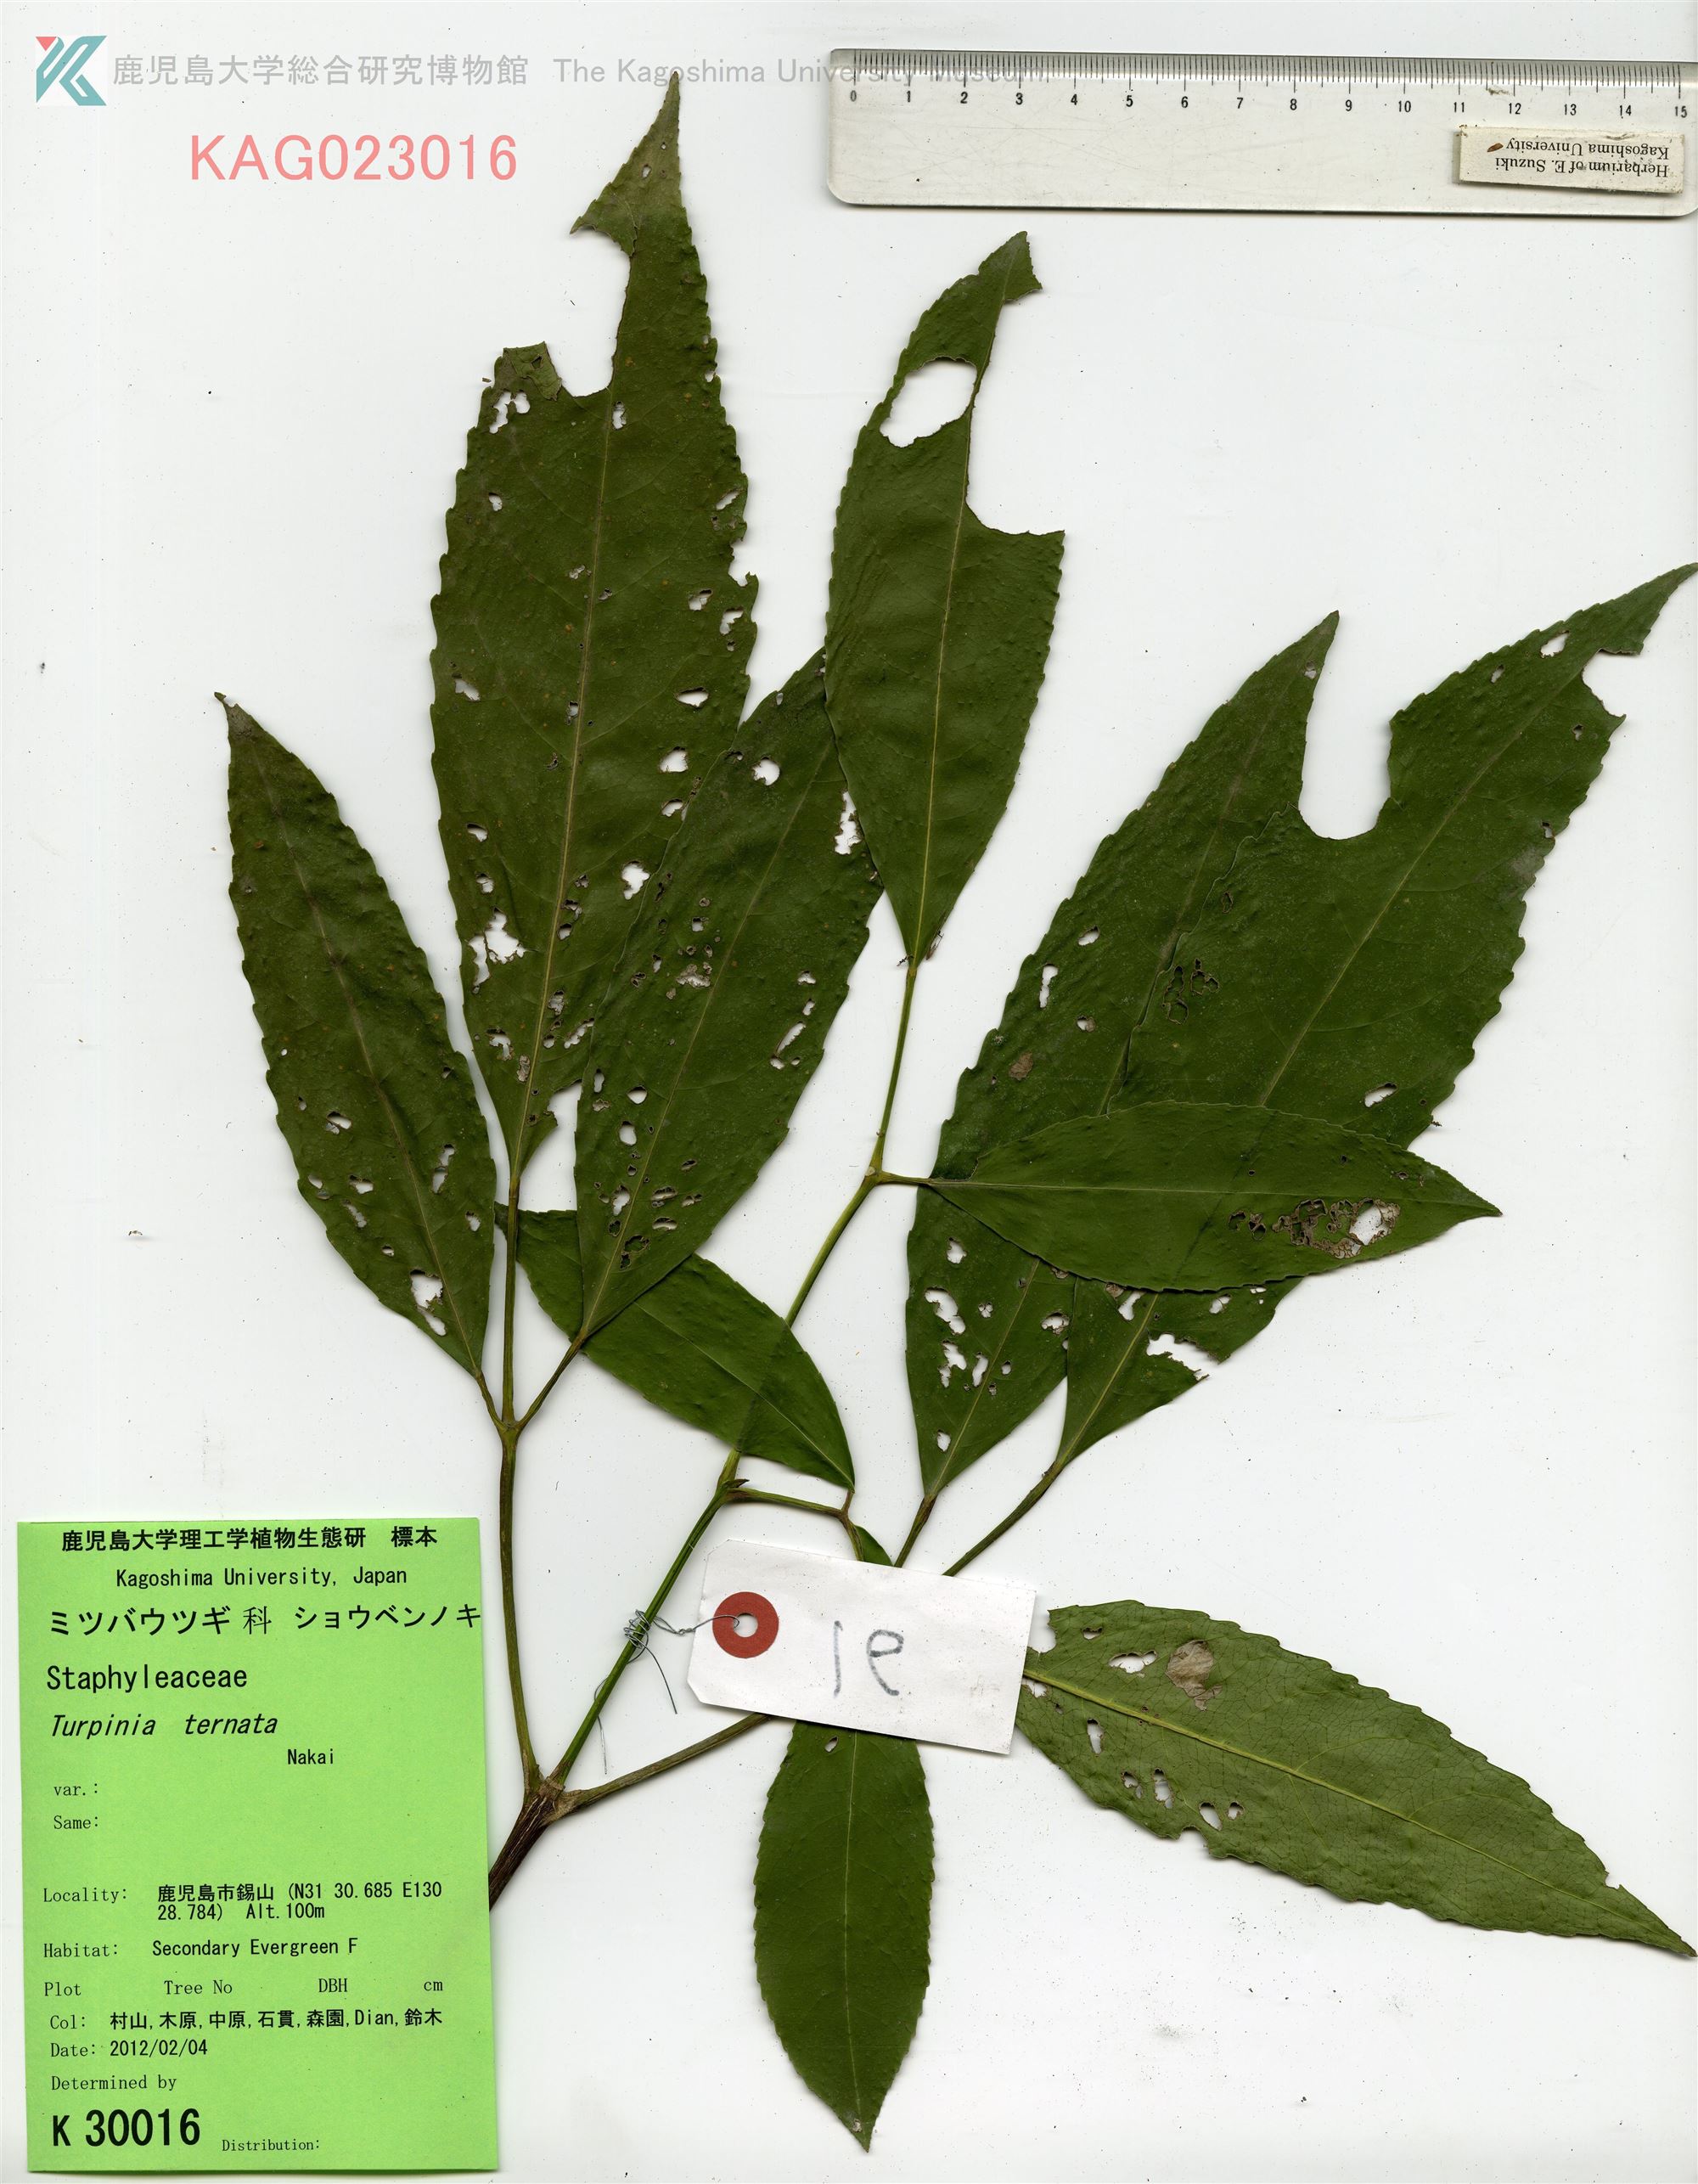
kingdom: Plantae
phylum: Tracheophyta
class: Magnoliopsida
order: Crossosomatales
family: Staphyleaceae
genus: Turpinia
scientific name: Turpinia ternata
